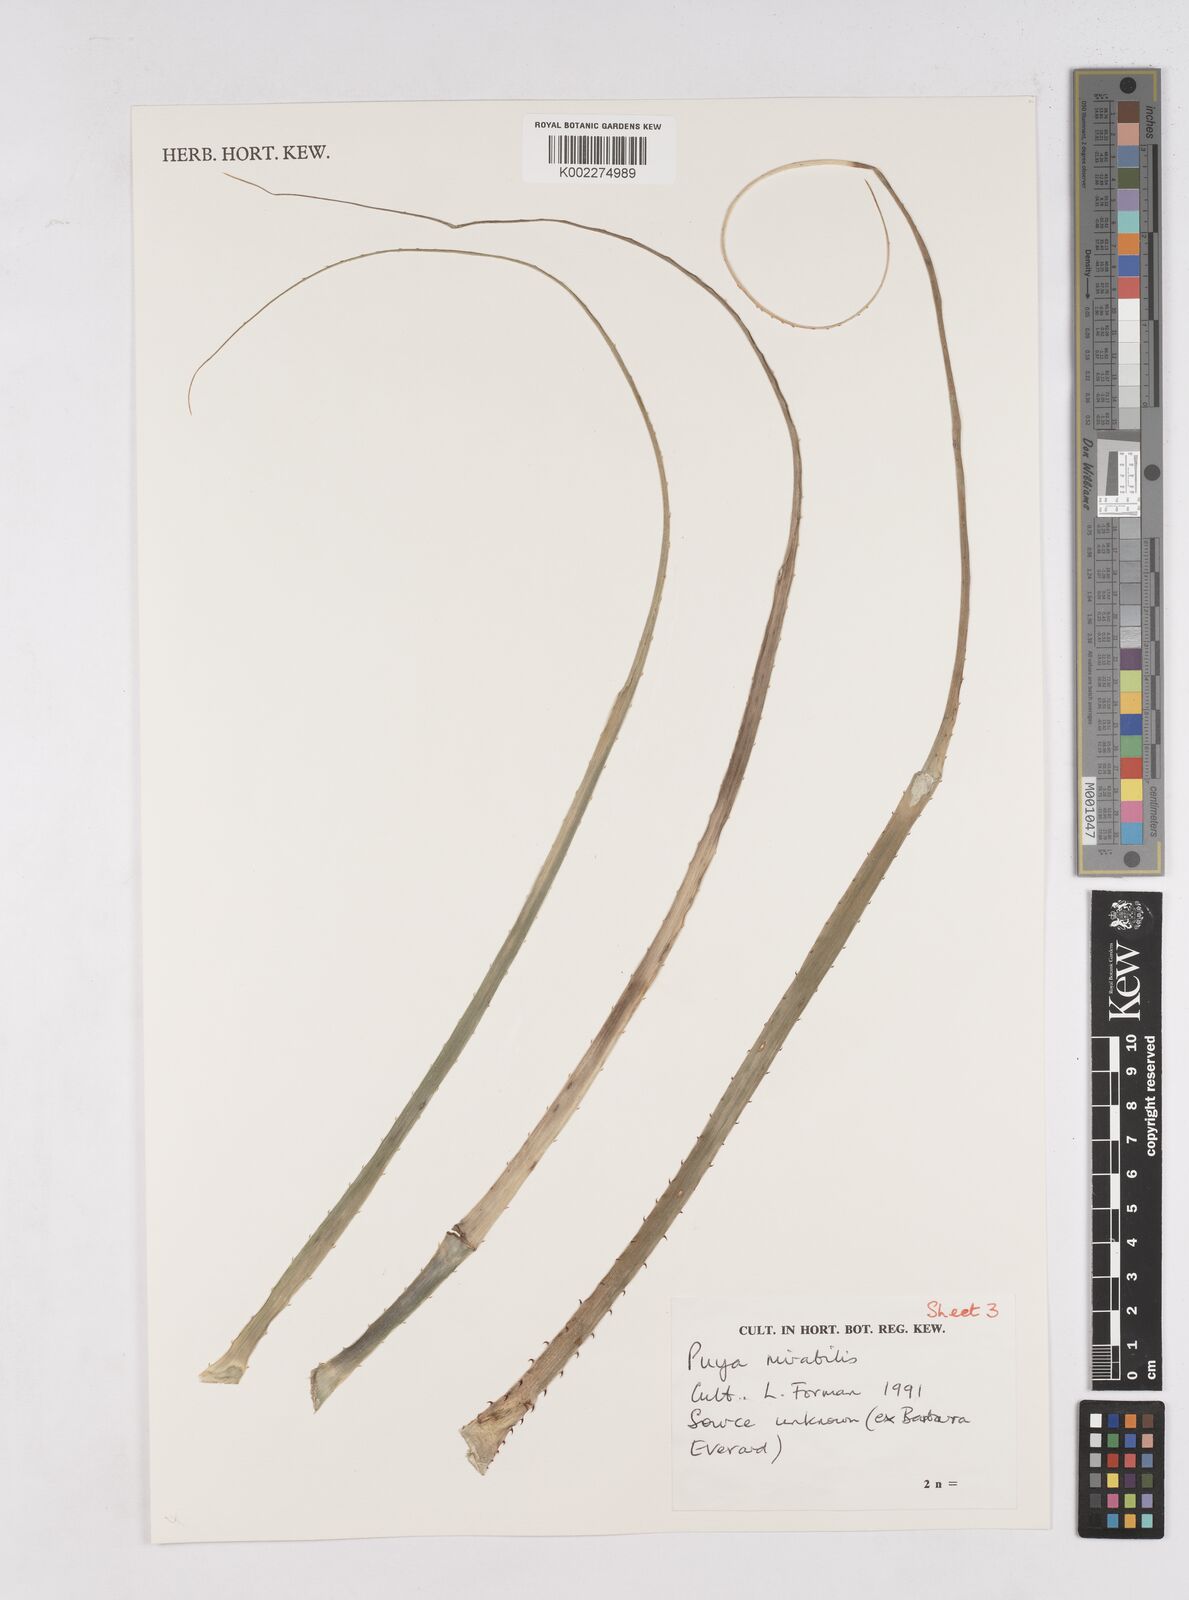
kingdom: Plantae
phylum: Tracheophyta
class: Liliopsida
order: Poales
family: Bromeliaceae
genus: Puya
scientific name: Puya
